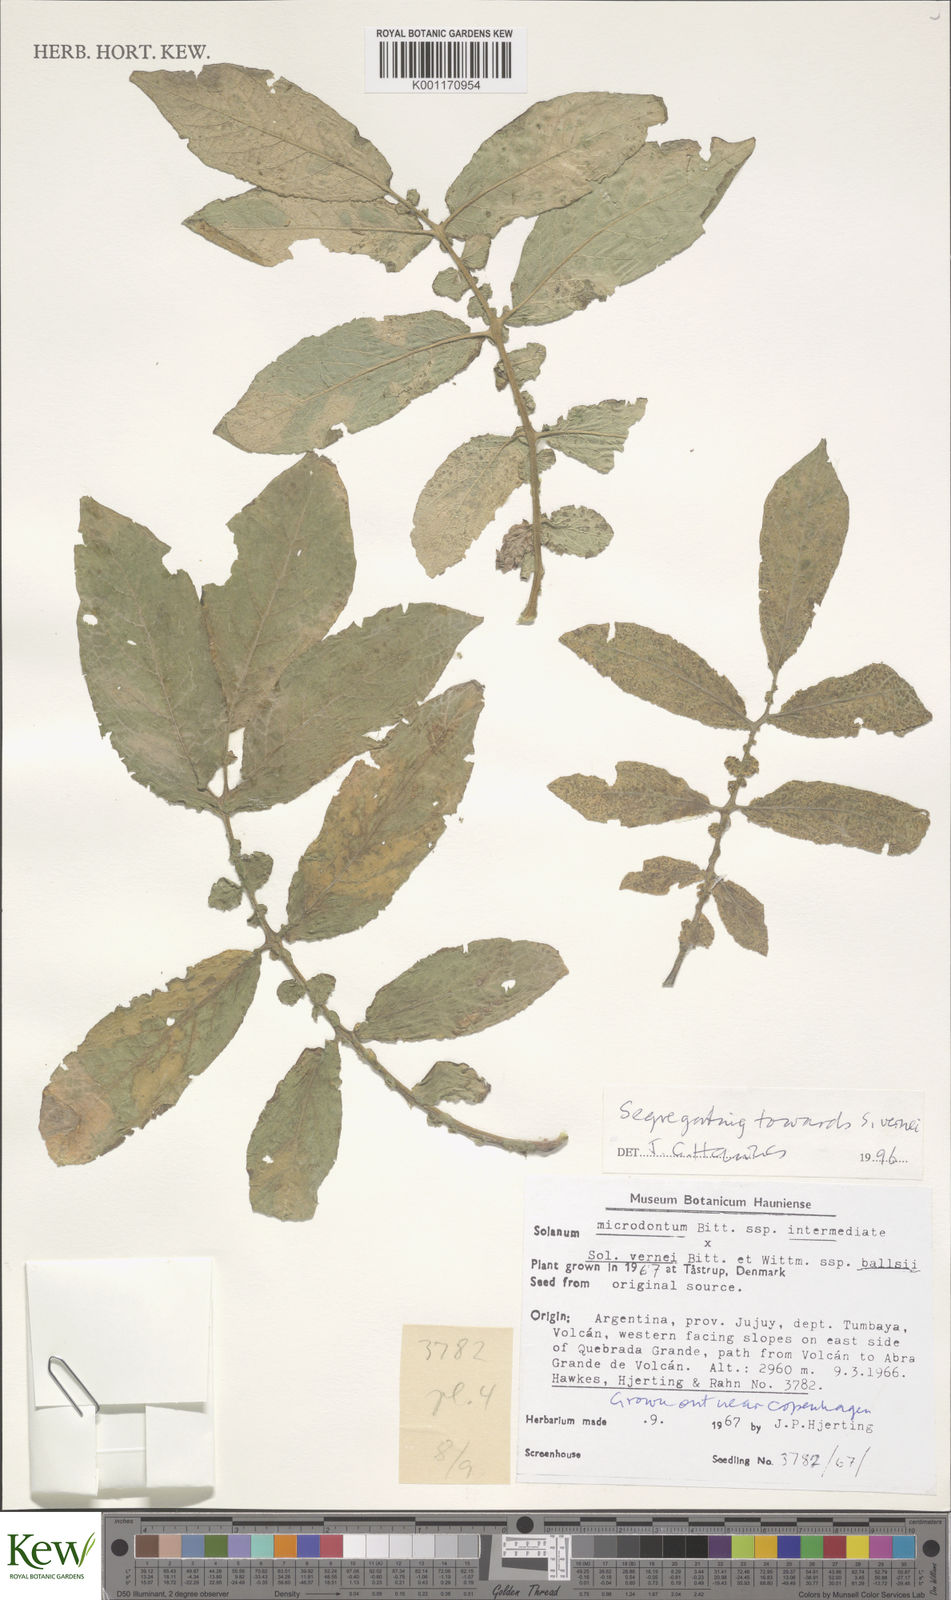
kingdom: Plantae
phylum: Tracheophyta
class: Magnoliopsida
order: Solanales
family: Solanaceae
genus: Solanum
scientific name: Solanum vernei
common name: Purple potato
